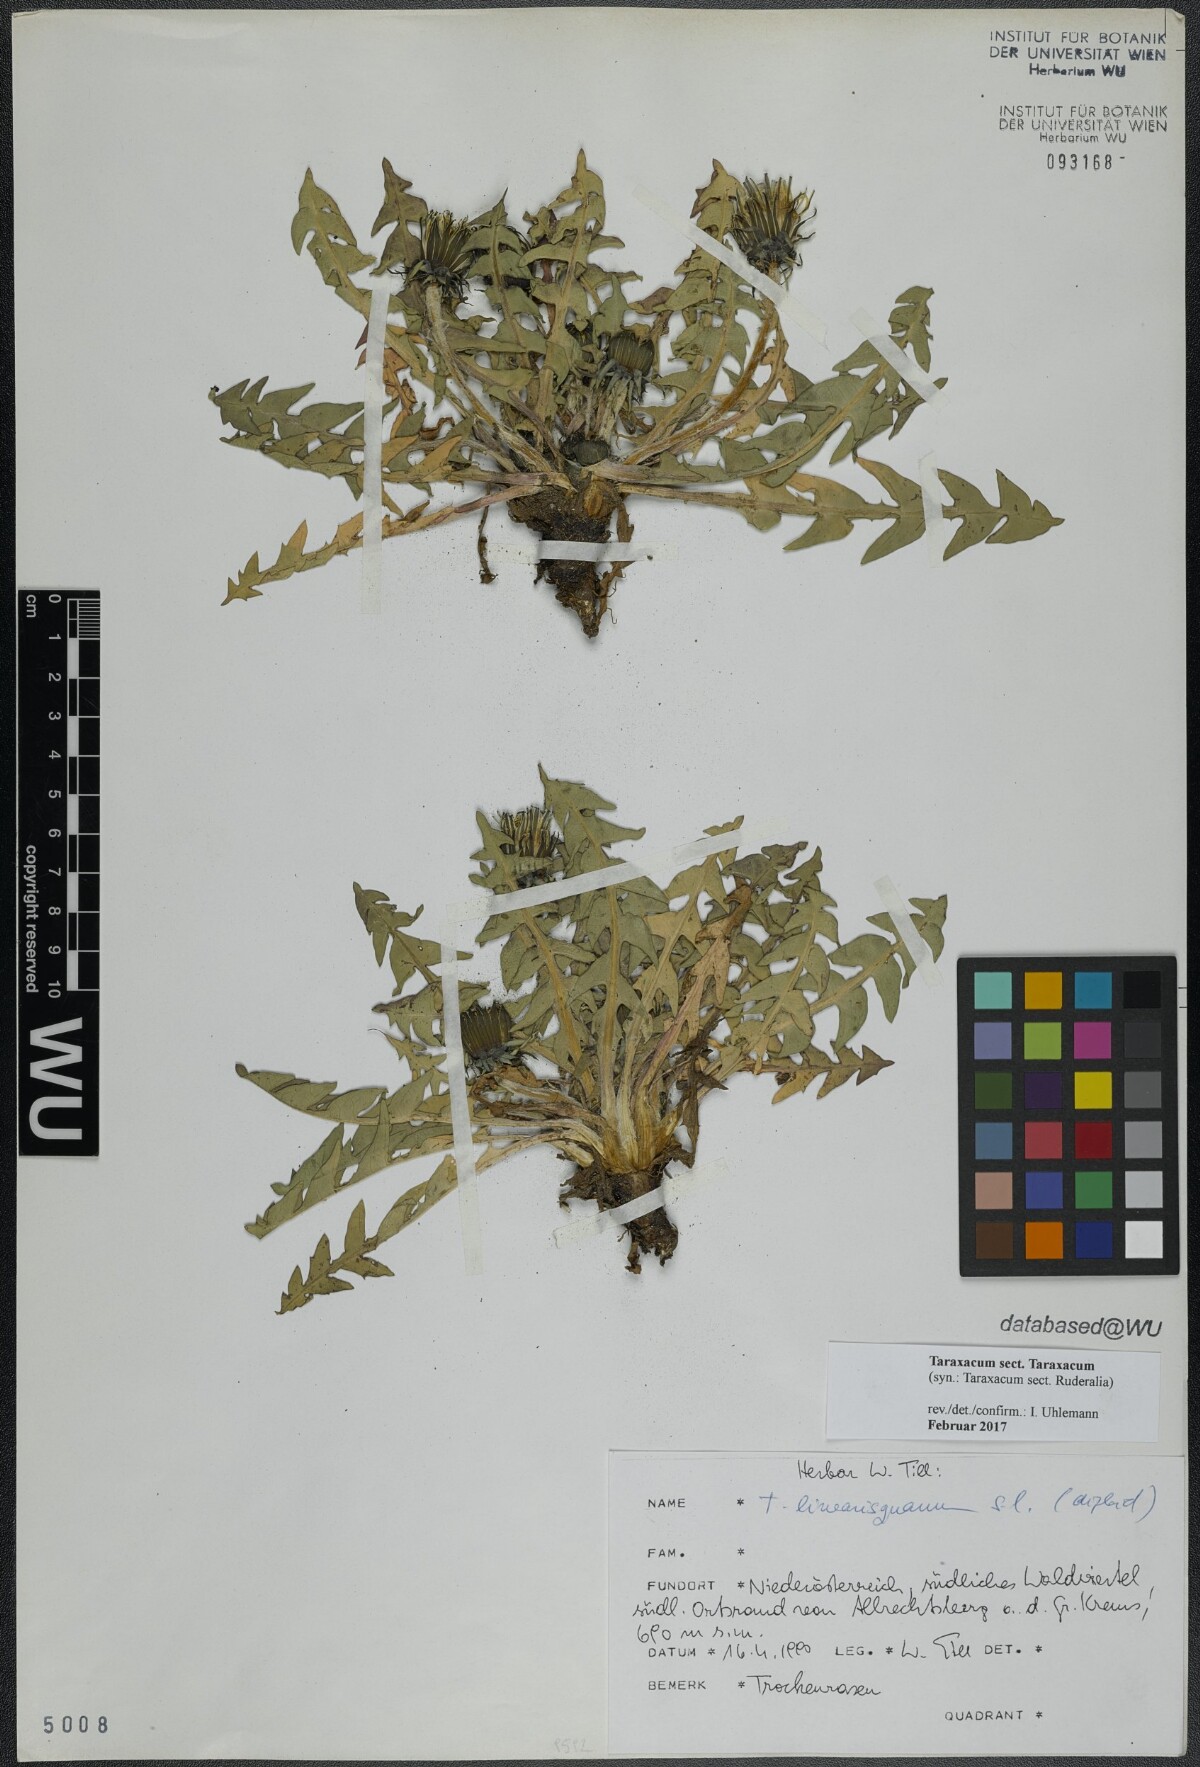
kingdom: Plantae
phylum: Tracheophyta
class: Magnoliopsida
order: Asterales
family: Asteraceae
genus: Taraxacum
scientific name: Taraxacum
